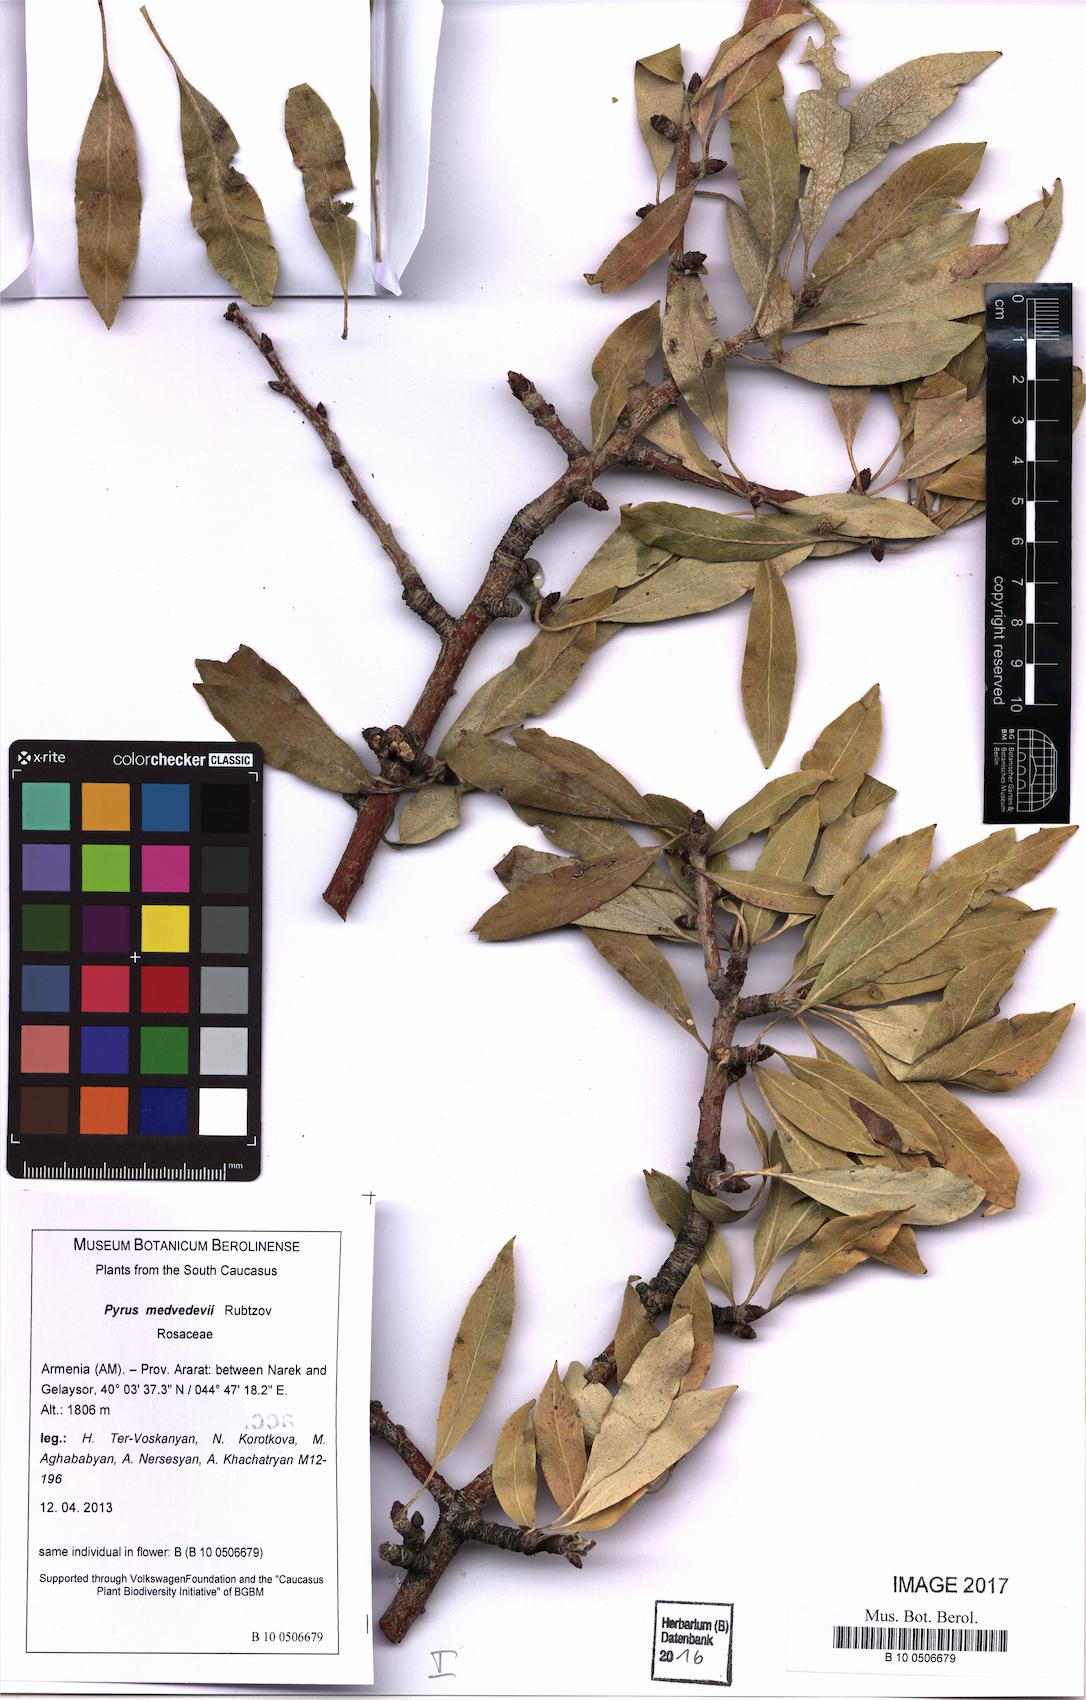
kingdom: Plantae
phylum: Tracheophyta
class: Magnoliopsida
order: Rosales
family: Rosaceae
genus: Pyrus
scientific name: Pyrus medvedevii
